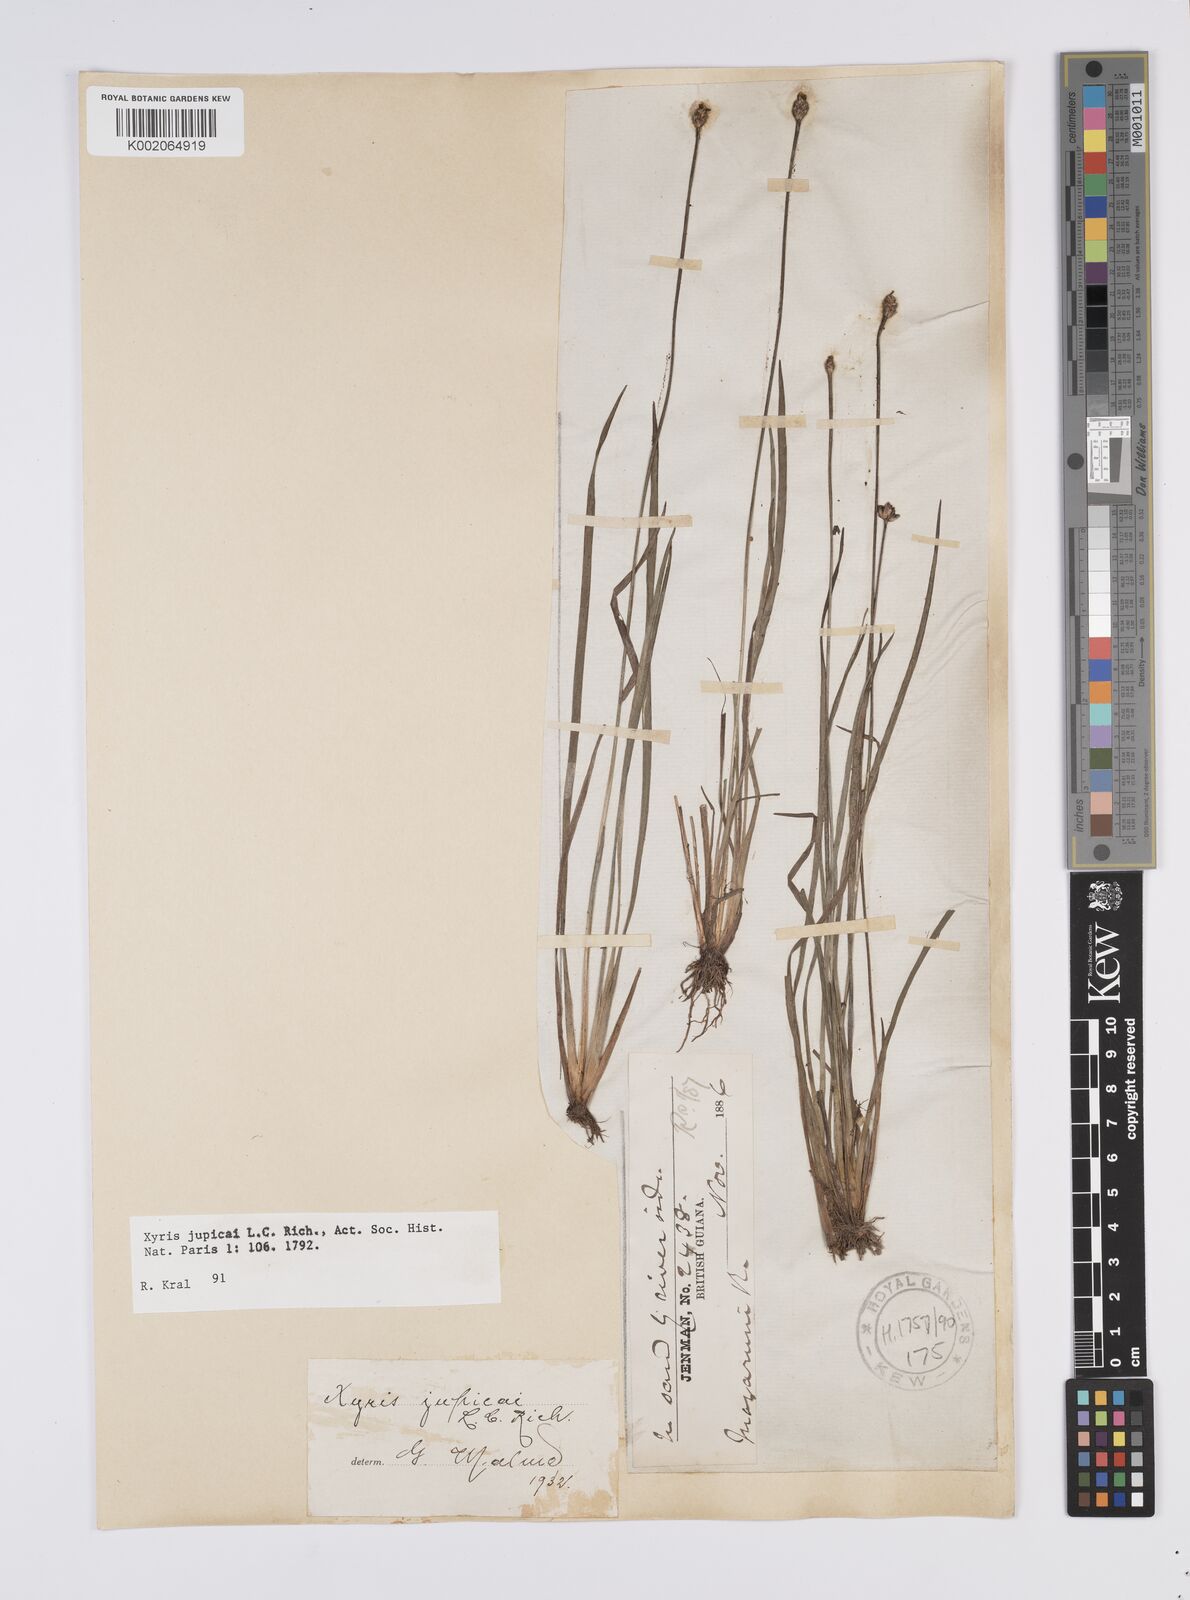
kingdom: Plantae
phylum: Tracheophyta
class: Liliopsida
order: Poales
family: Xyridaceae
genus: Xyris
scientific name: Xyris jupicai
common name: Richard's yelloweyed grass
